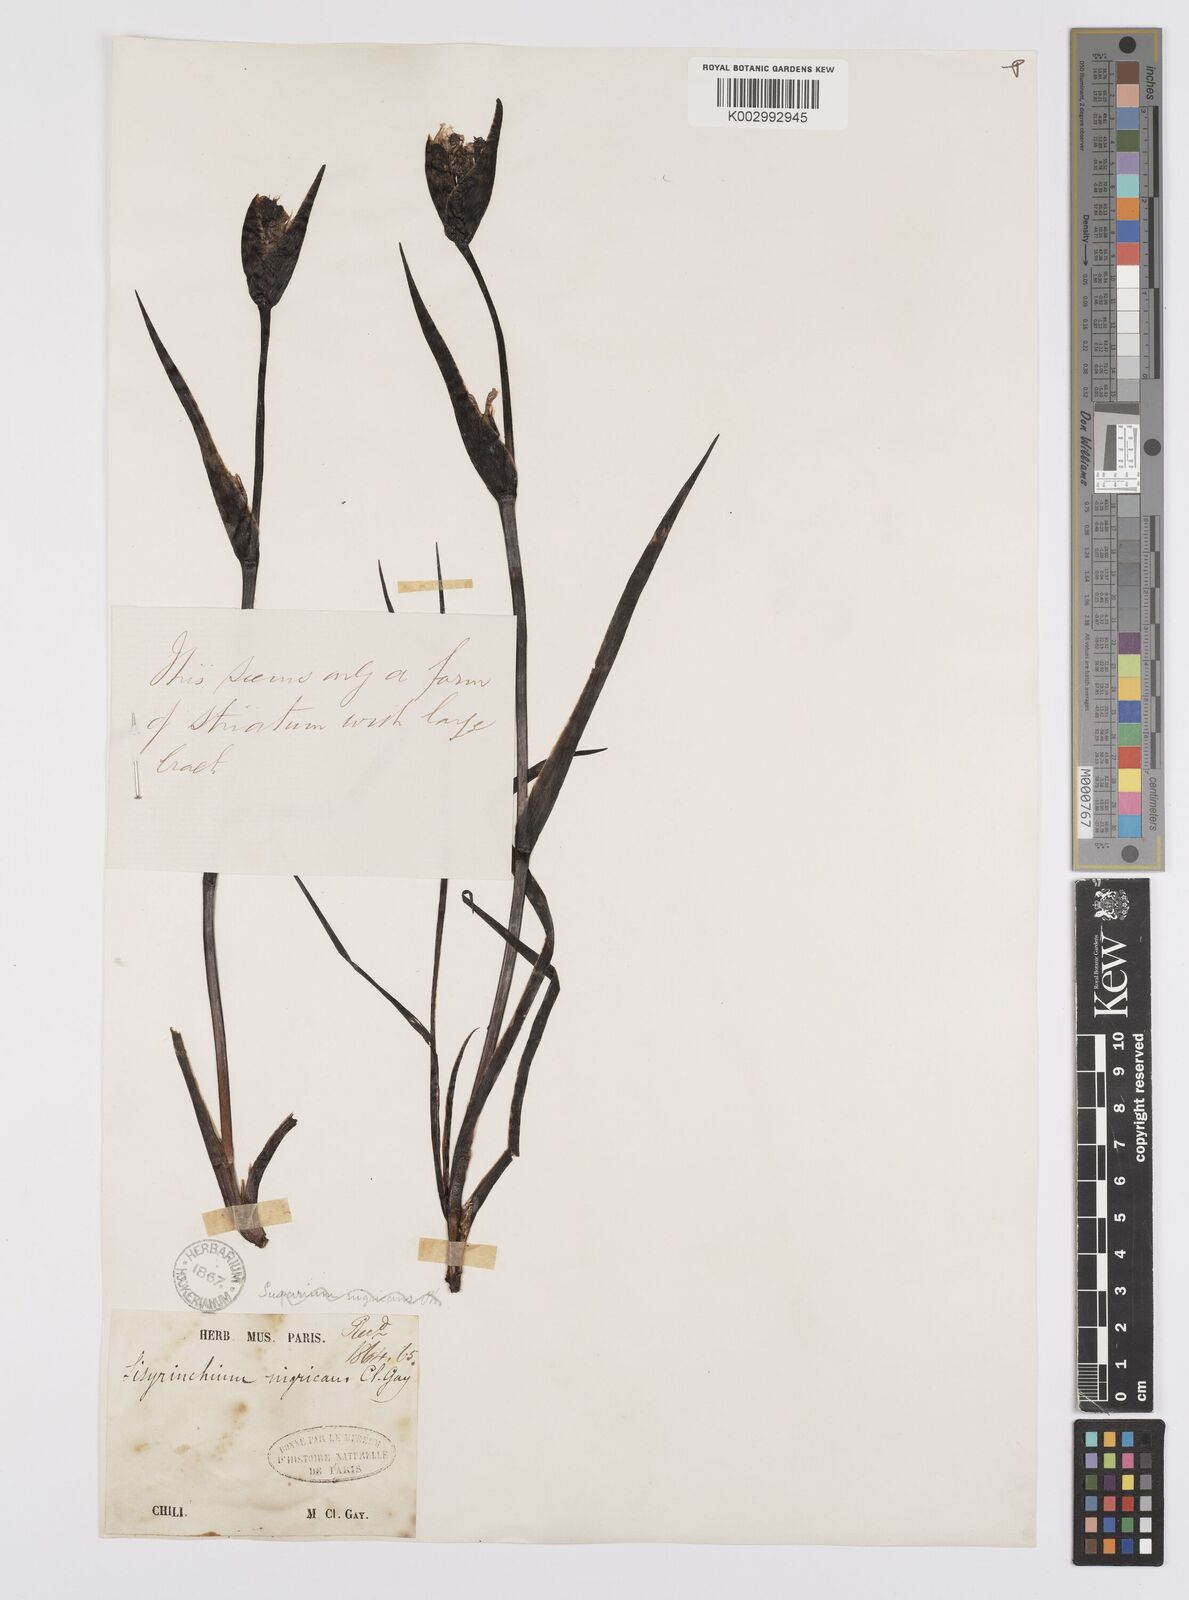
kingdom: Plantae
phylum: Tracheophyta
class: Liliopsida
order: Asparagales
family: Iridaceae
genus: Sisyrinchium
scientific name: Sisyrinchium striatum
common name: Pale yellow-eyed-grass
